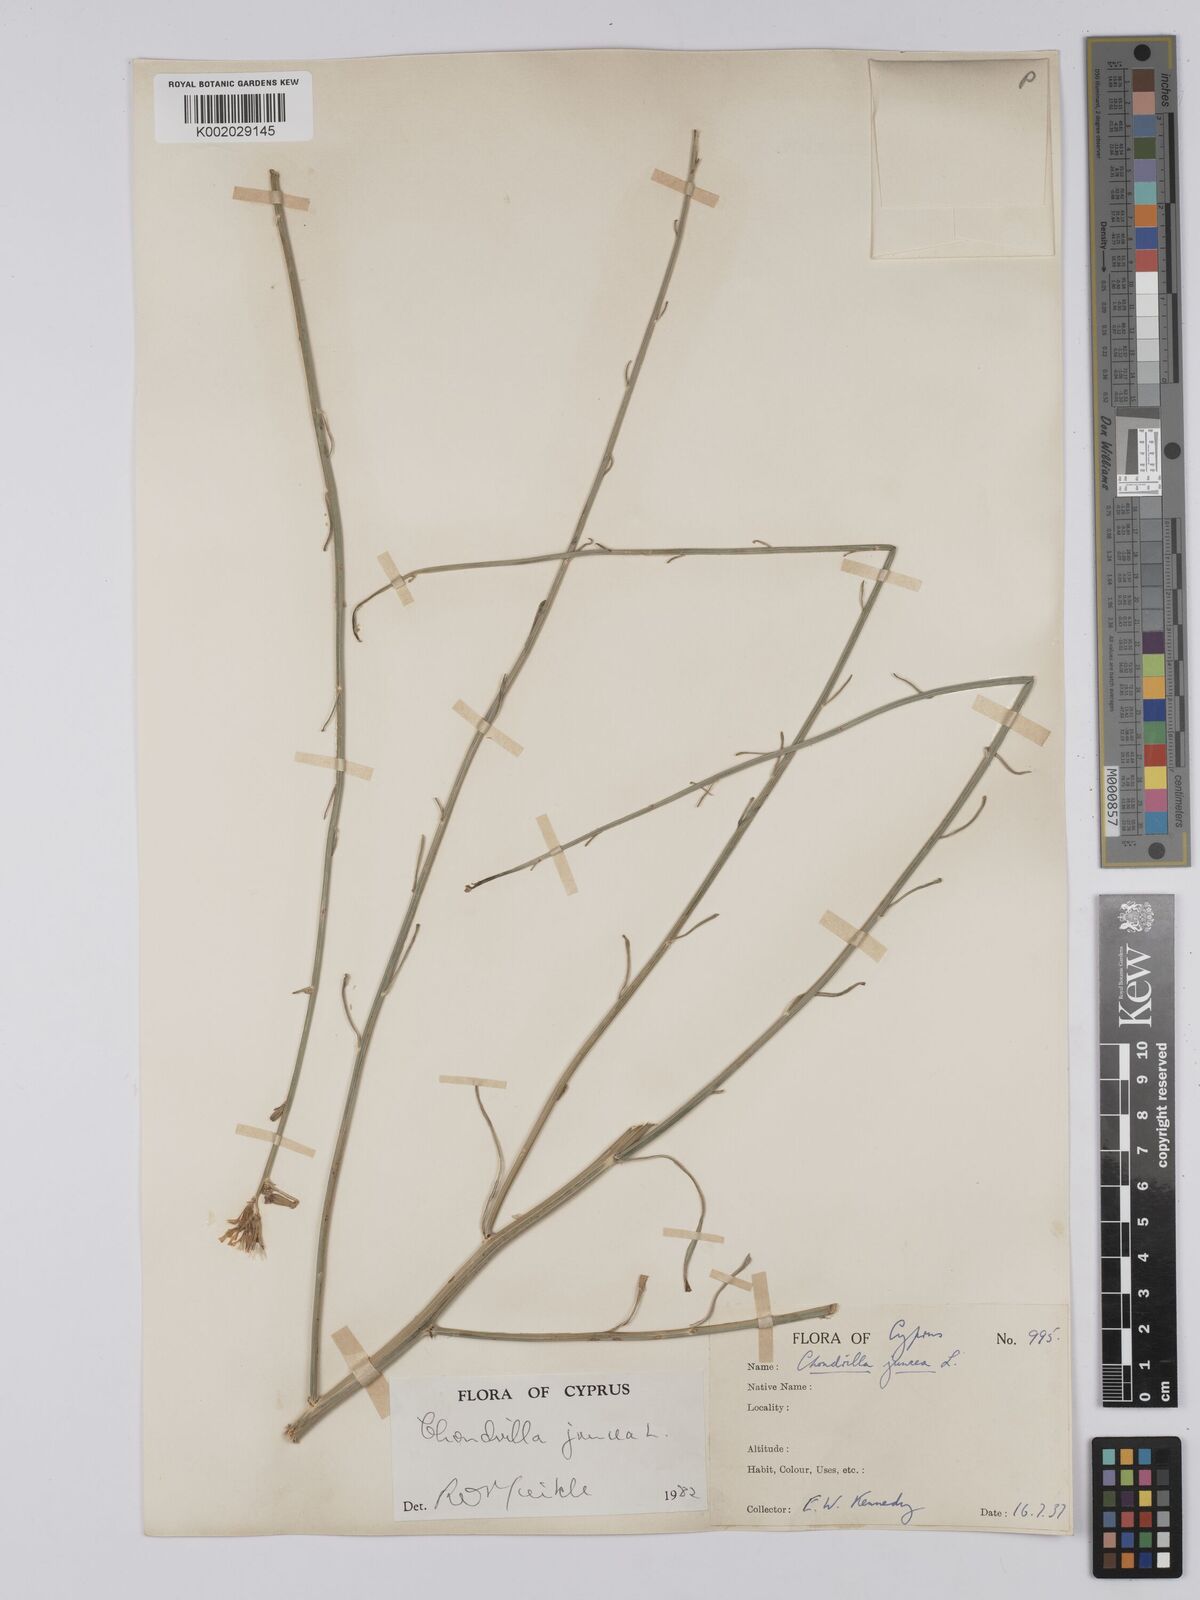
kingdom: Plantae
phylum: Tracheophyta
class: Magnoliopsida
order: Asterales
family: Asteraceae
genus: Chondrilla
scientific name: Chondrilla juncea
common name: Skeleton weed
